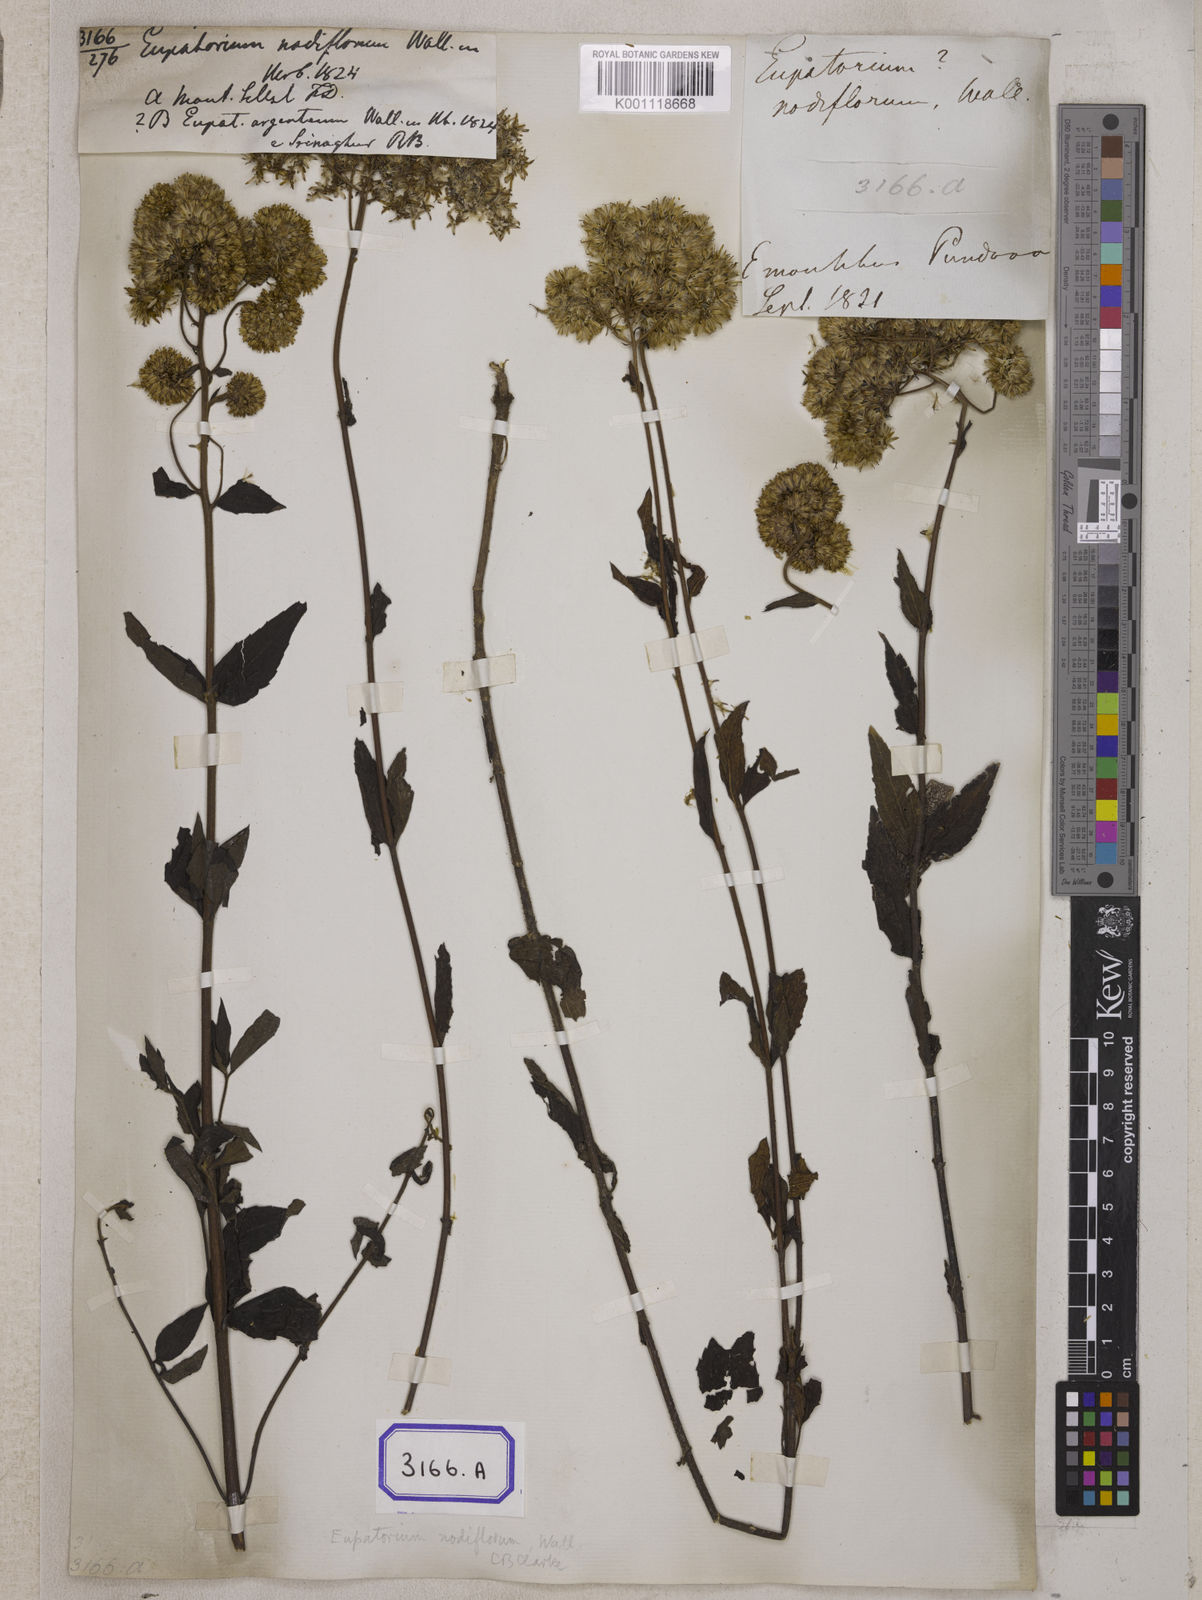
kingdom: Plantae
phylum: Tracheophyta
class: Magnoliopsida
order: Asterales
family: Asteraceae
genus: Eupatorium
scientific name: Eupatorium
